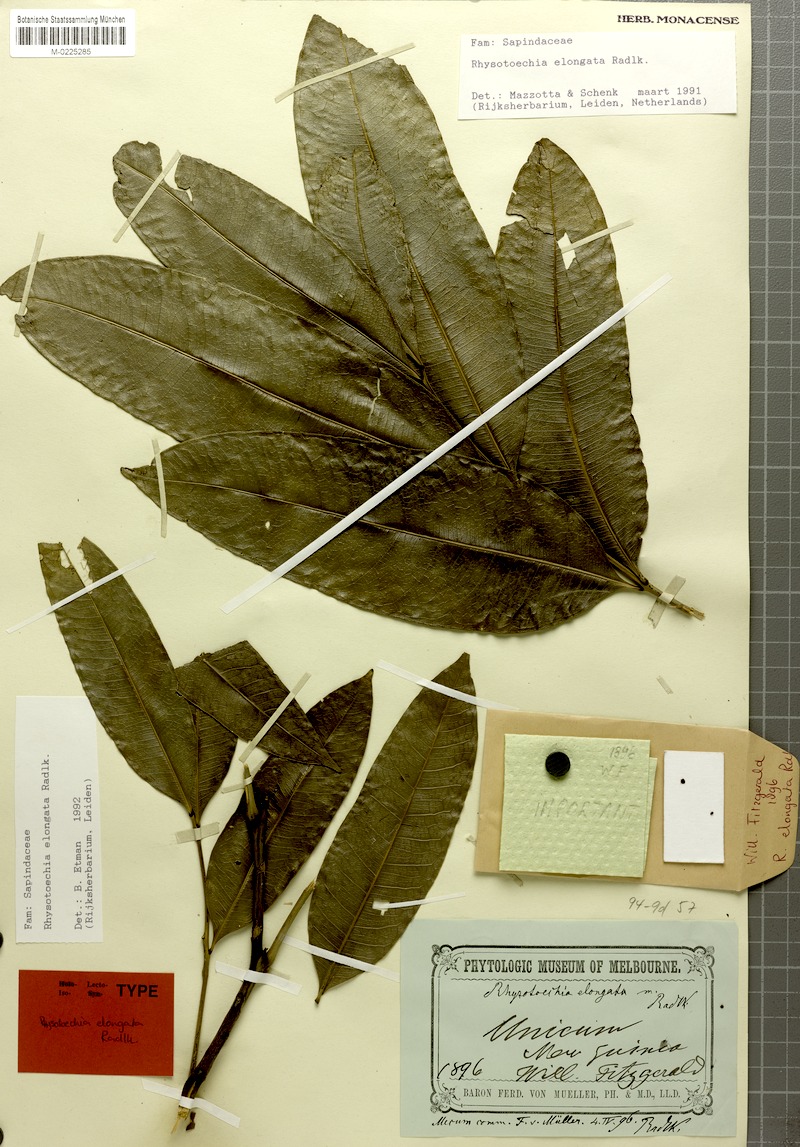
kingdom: Plantae
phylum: Tracheophyta
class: Magnoliopsida
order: Sapindales
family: Sapindaceae
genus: Rhysotoechia
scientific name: Rhysotoechia elongata
